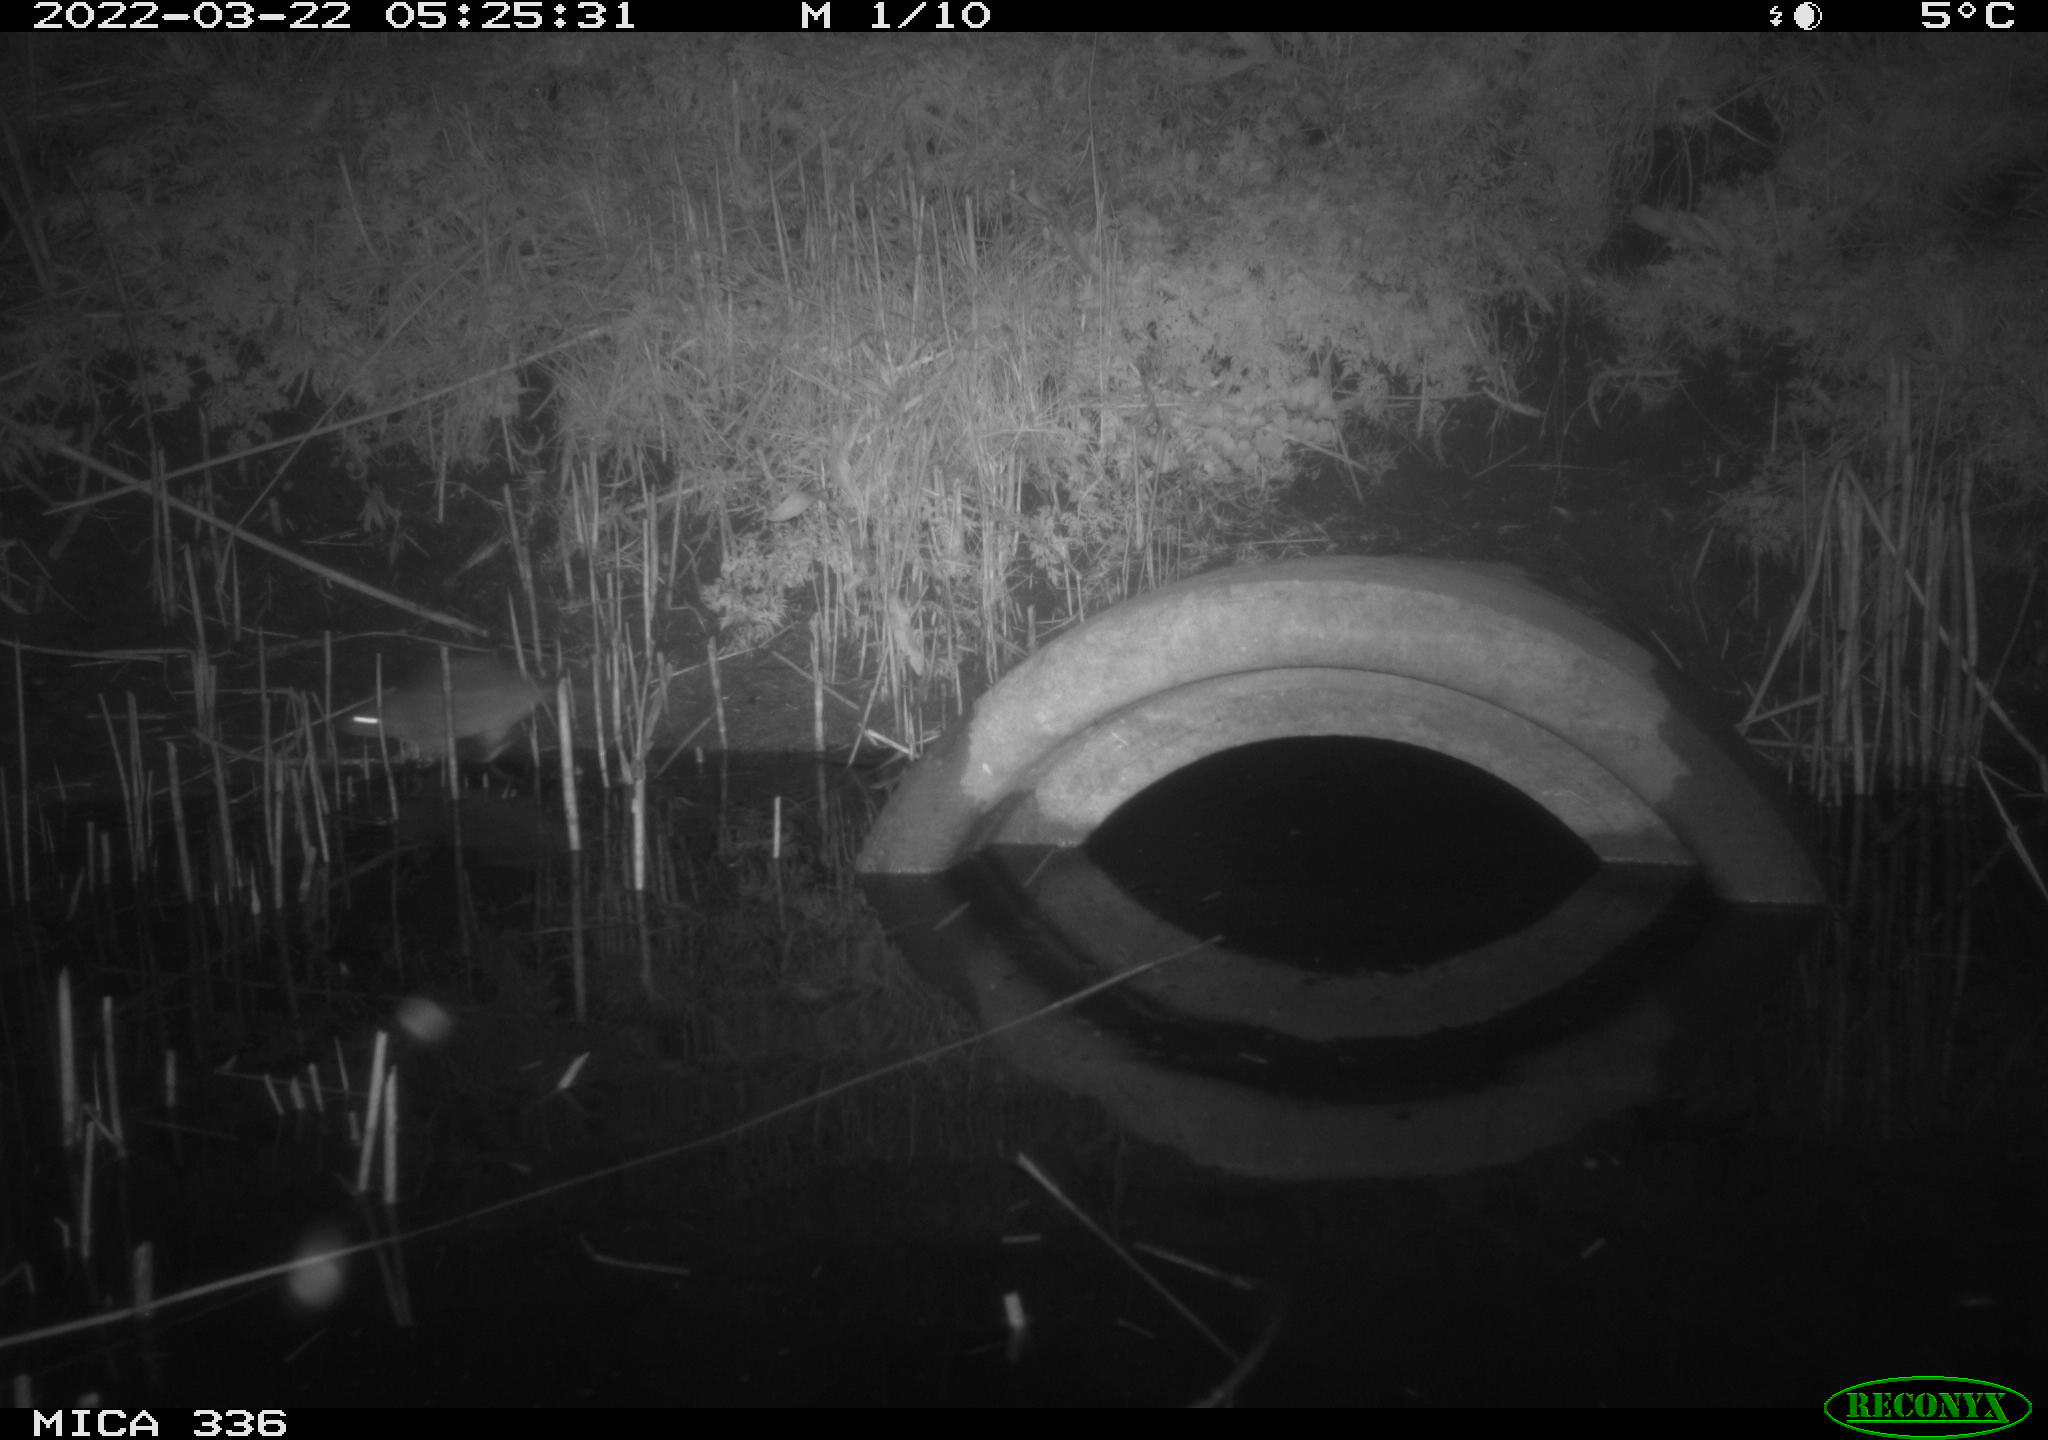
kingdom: Animalia
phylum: Chordata
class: Mammalia
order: Rodentia
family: Muridae
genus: Rattus
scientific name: Rattus norvegicus
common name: Brown rat
